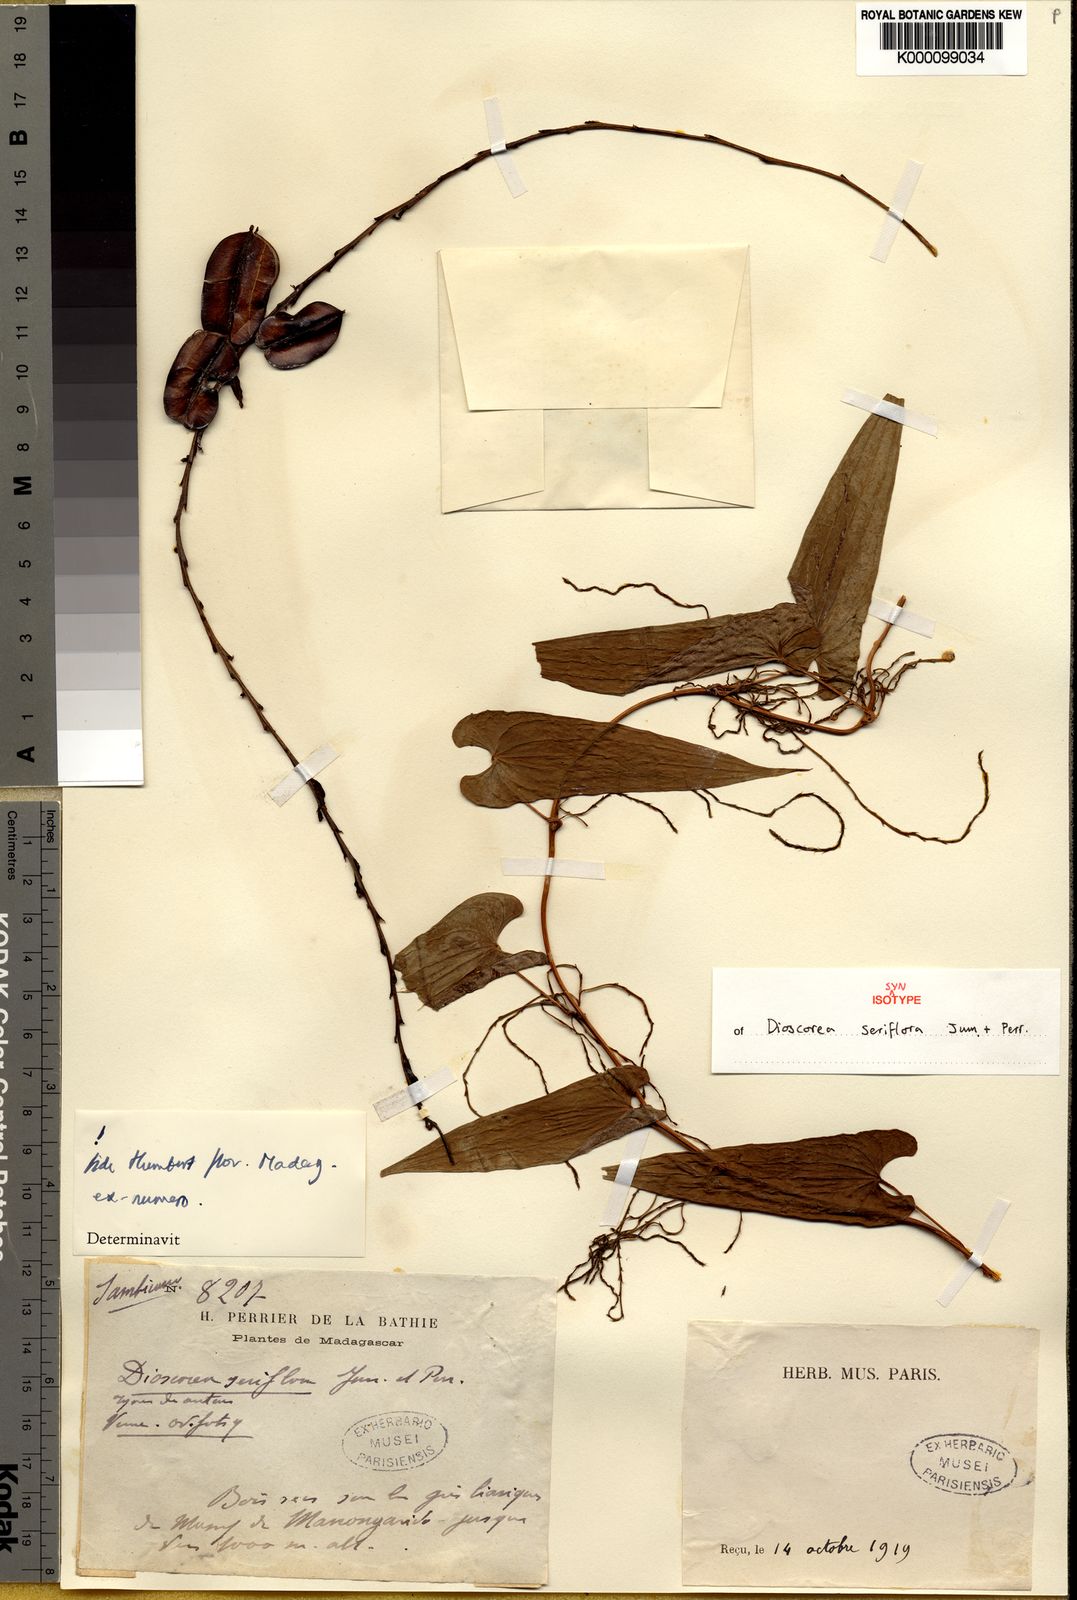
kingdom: Plantae
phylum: Tracheophyta
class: Liliopsida
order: Dioscoreales
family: Dioscoreaceae
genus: Dioscorea
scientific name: Dioscorea seriflora
